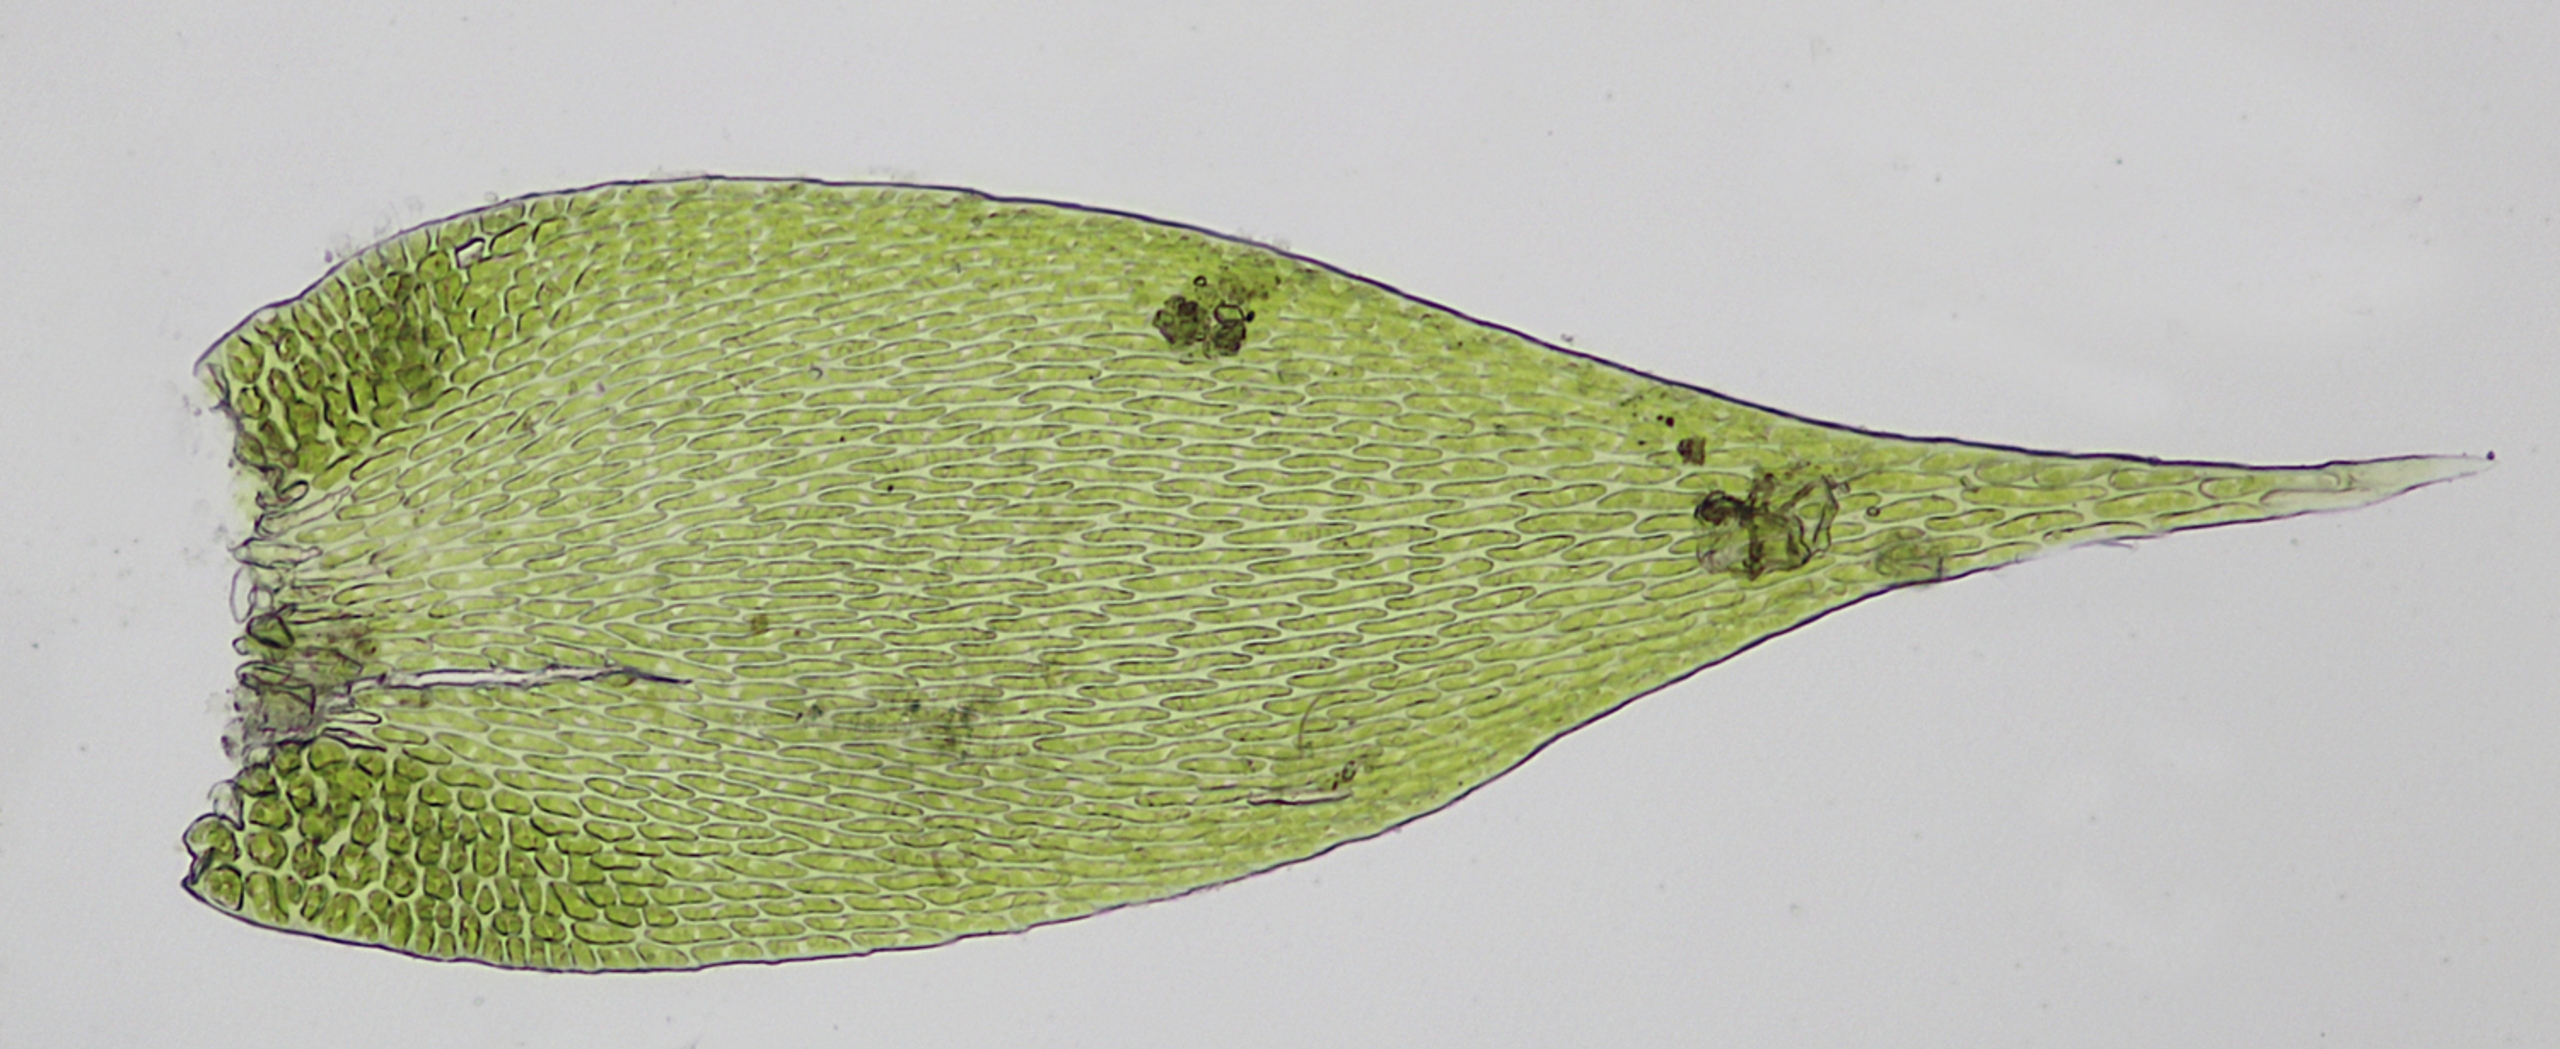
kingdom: Plantae
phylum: Bryophyta
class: Bryopsida
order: Hypnales
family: Hypnaceae
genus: Hypnum
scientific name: Hypnum resupinatum
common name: Ret cypresmos
